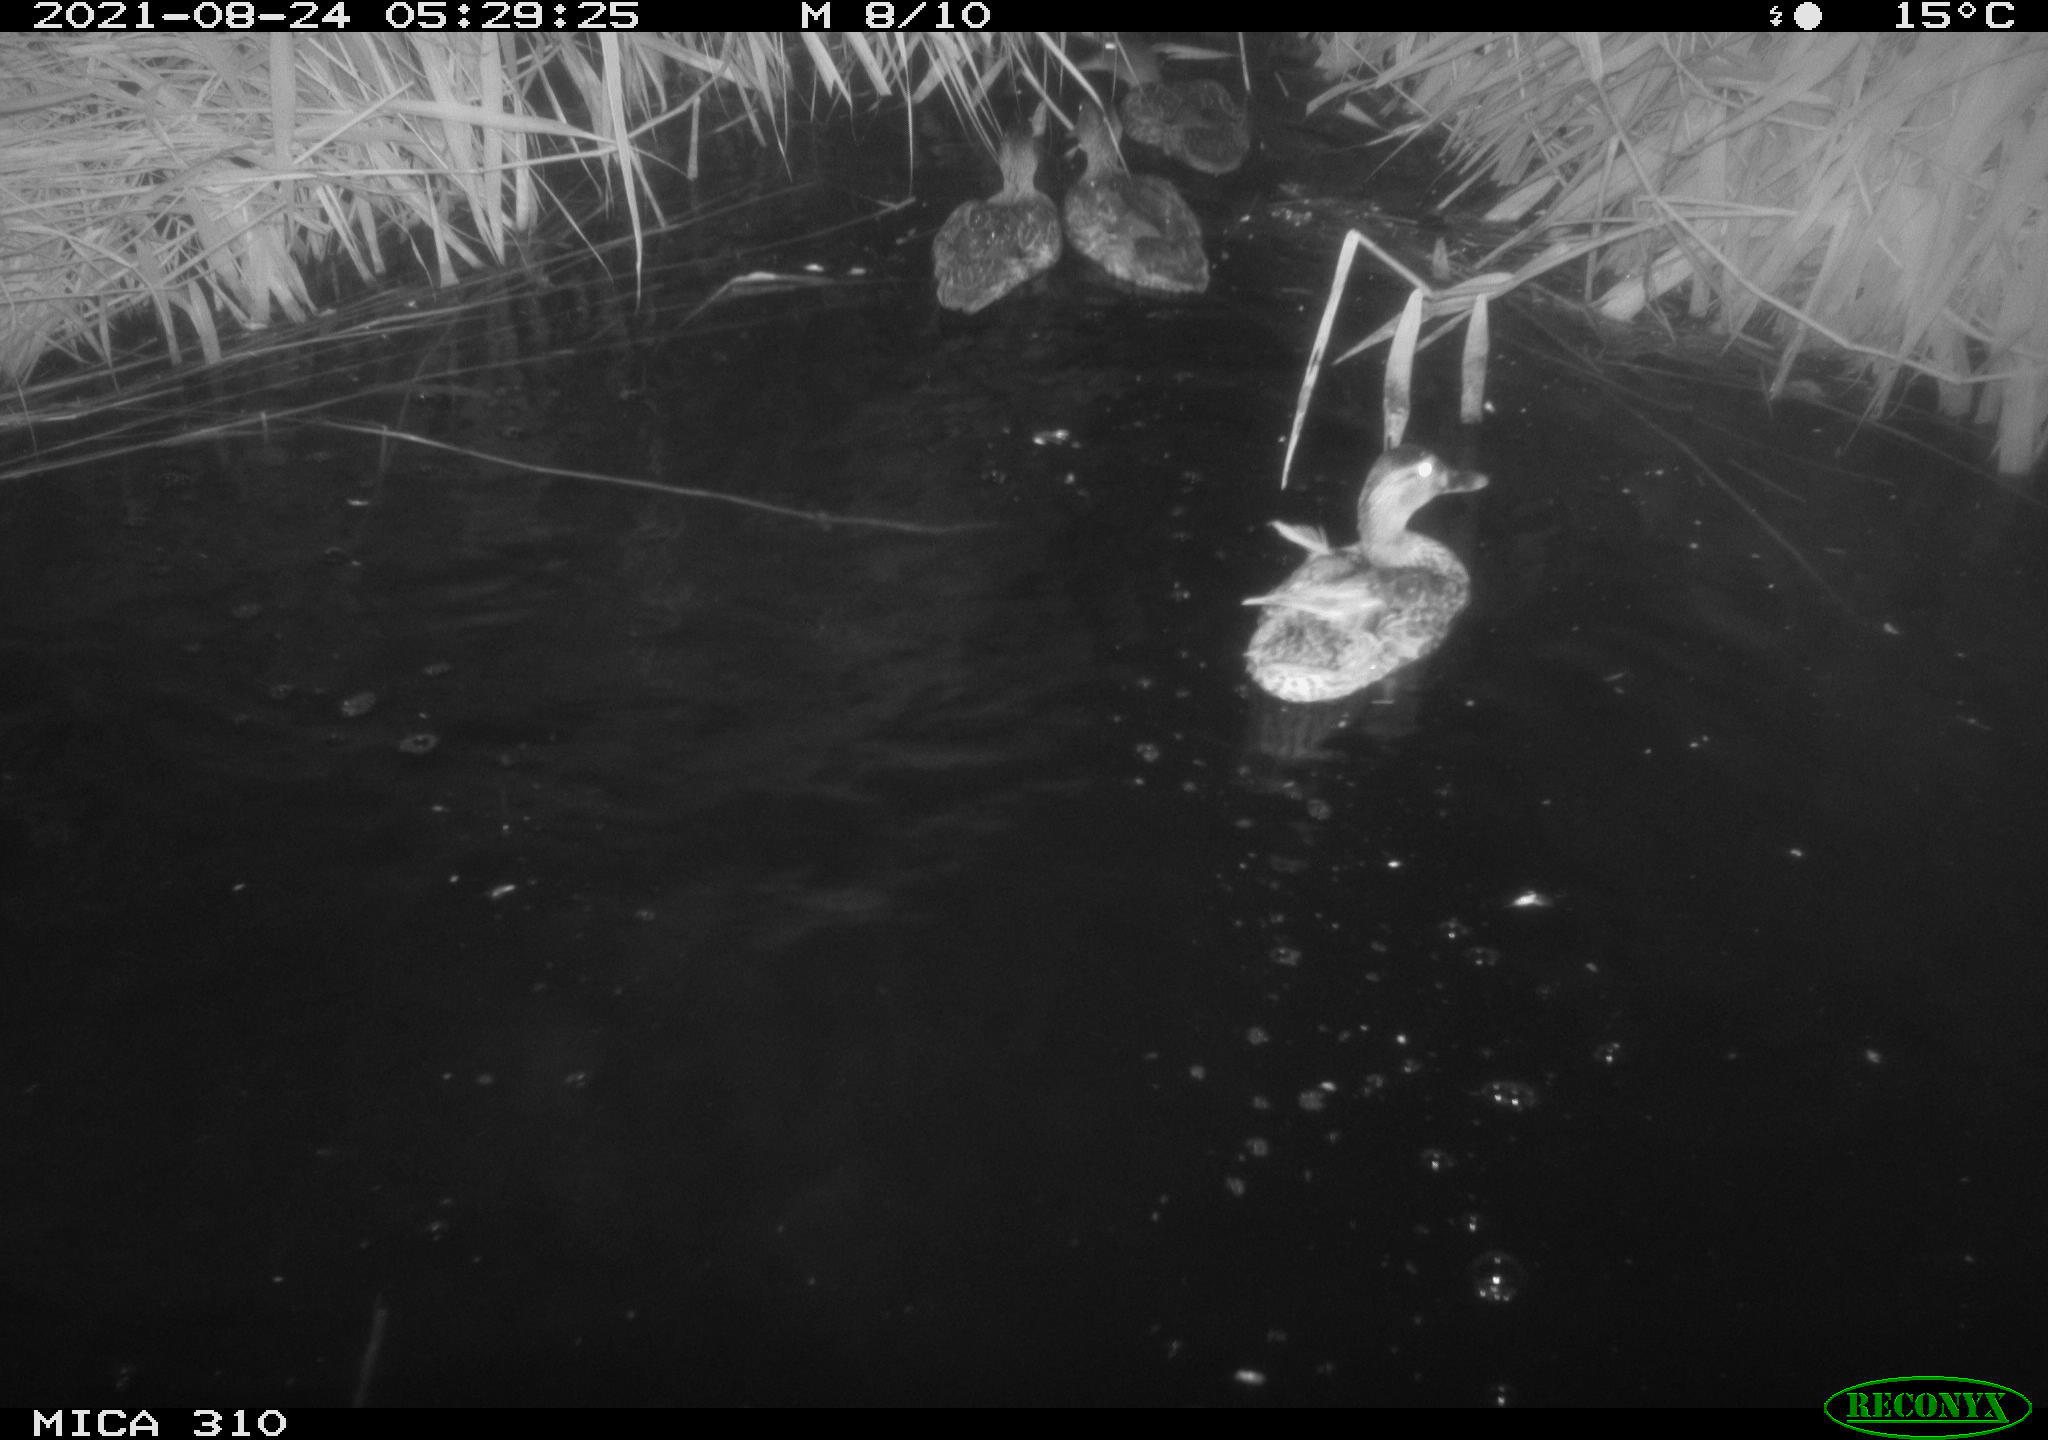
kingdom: Animalia
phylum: Chordata
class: Aves
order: Anseriformes
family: Anatidae
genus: Anas
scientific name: Anas platyrhynchos
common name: Mallard
